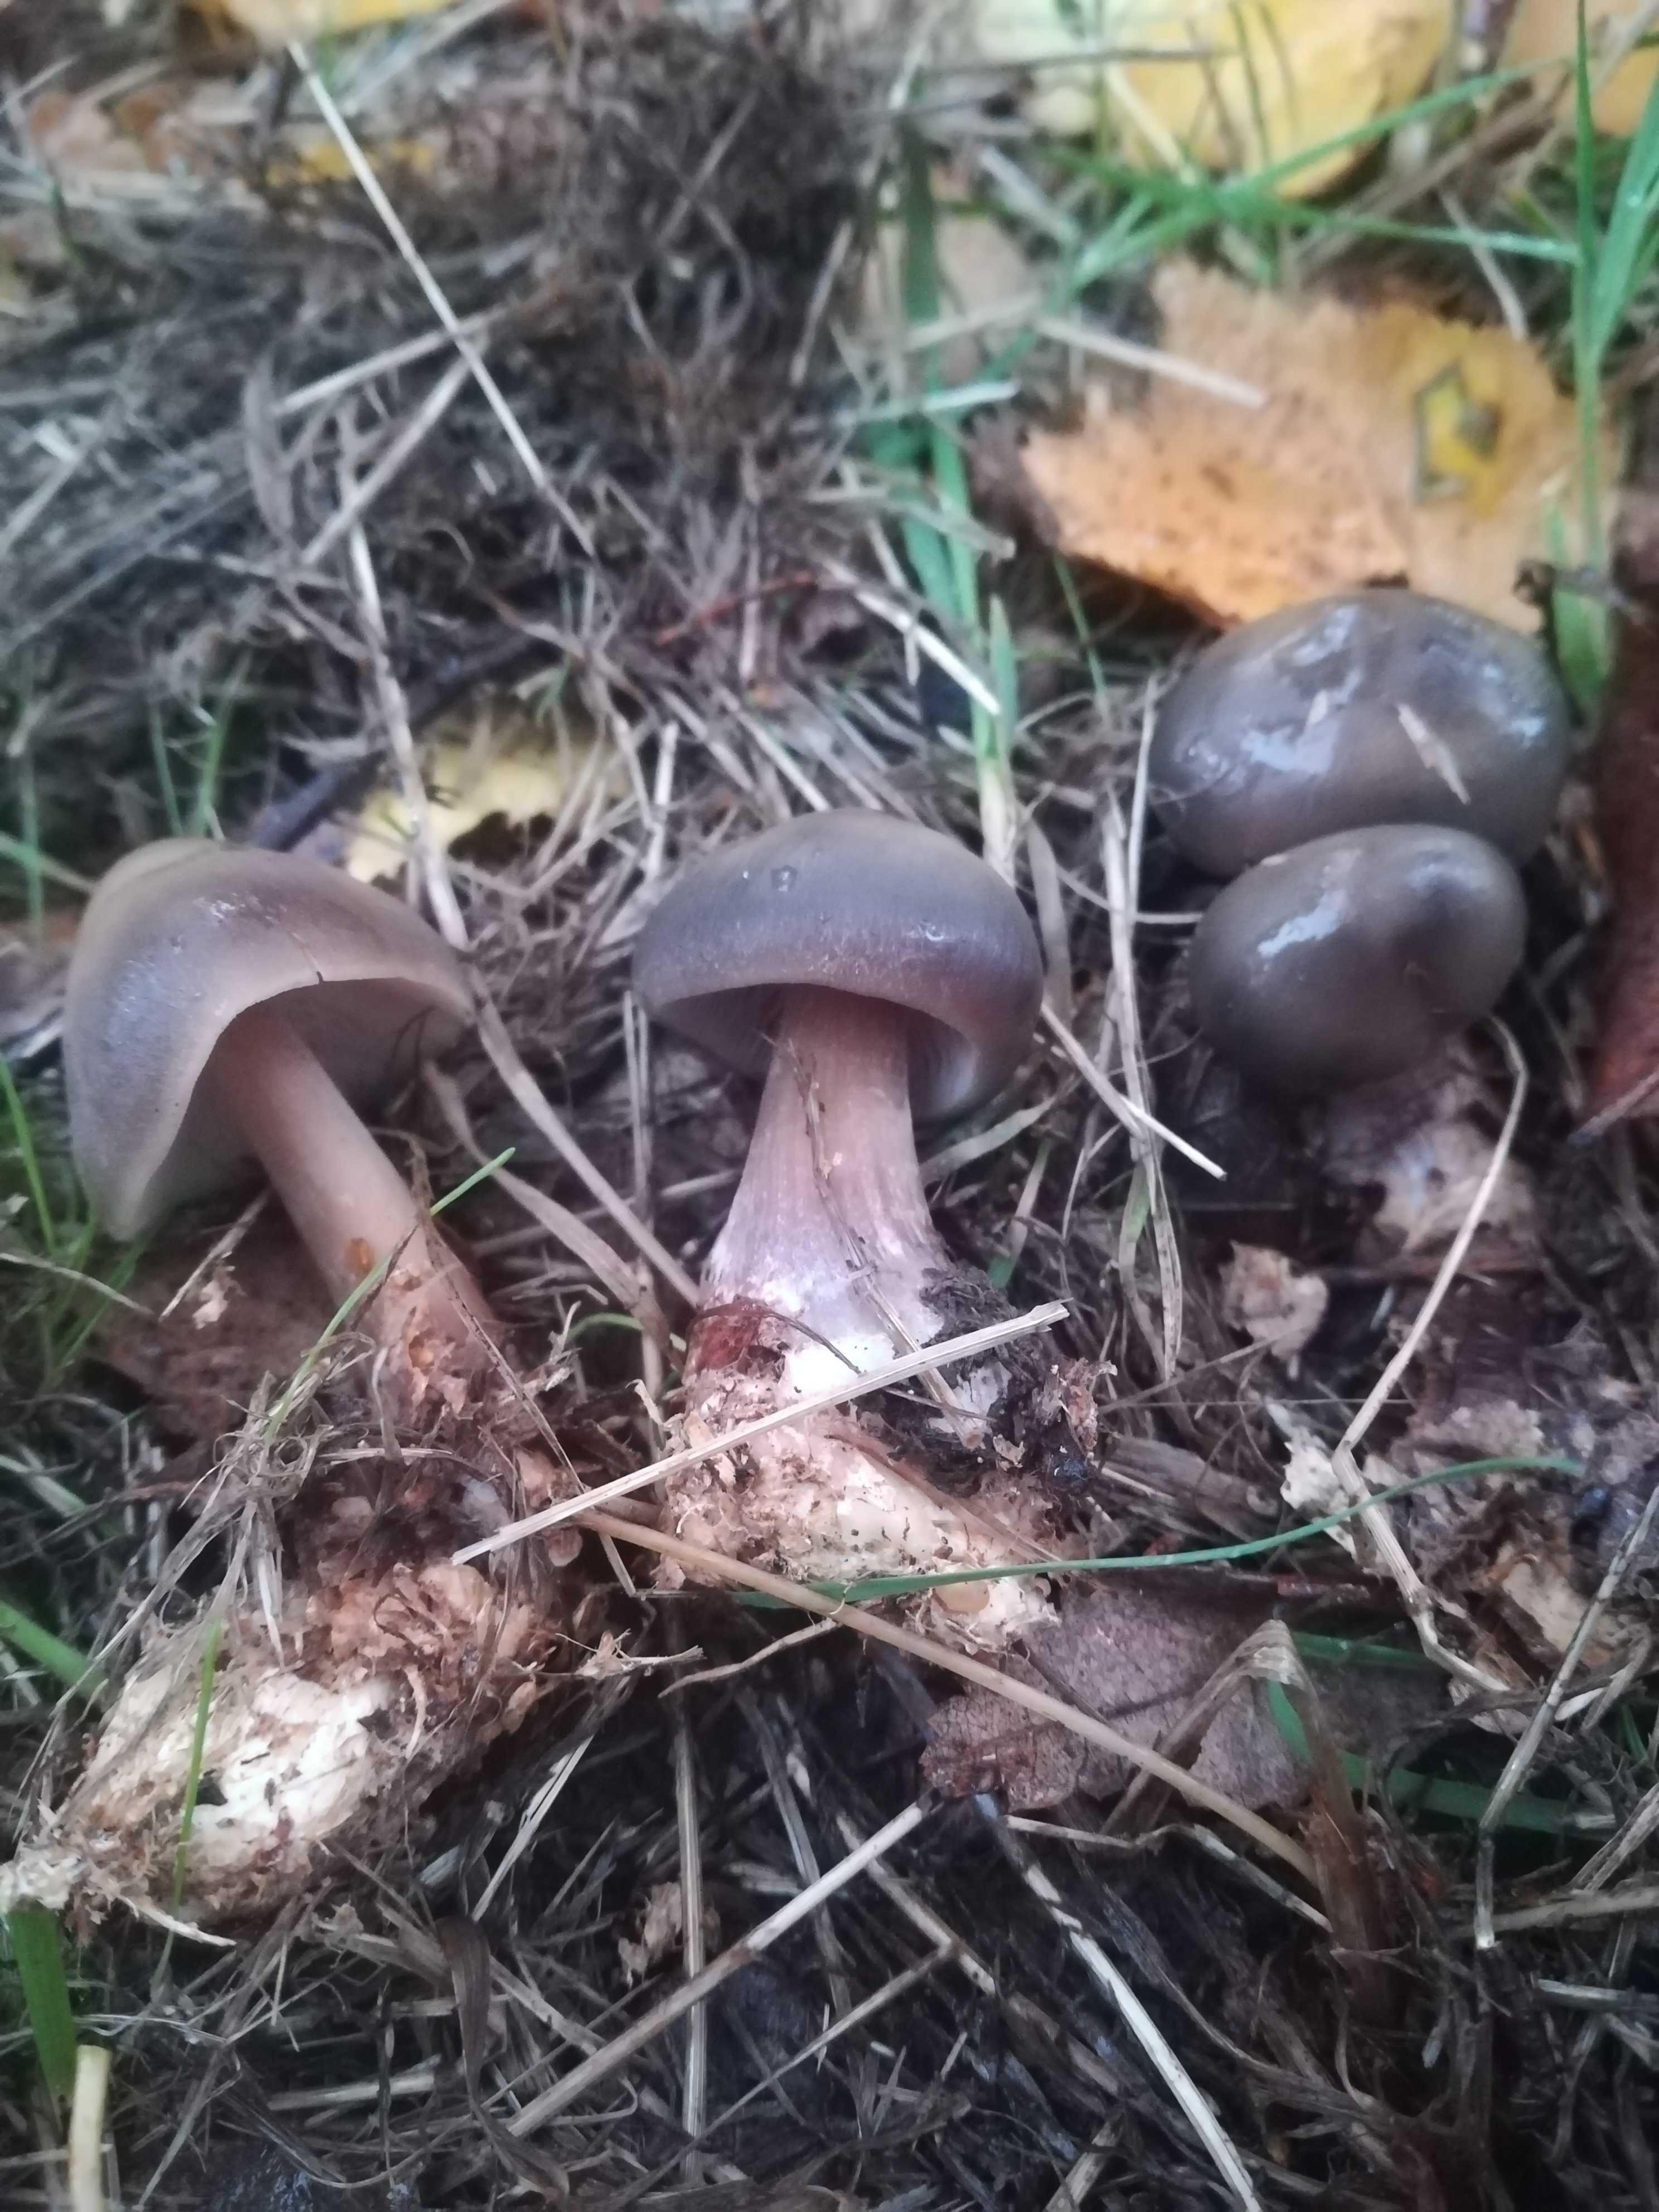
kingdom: Fungi
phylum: Basidiomycota
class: Agaricomycetes
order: Agaricales
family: Omphalotaceae
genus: Rhodocollybia
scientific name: Rhodocollybia asema
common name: horngrå fladhat
